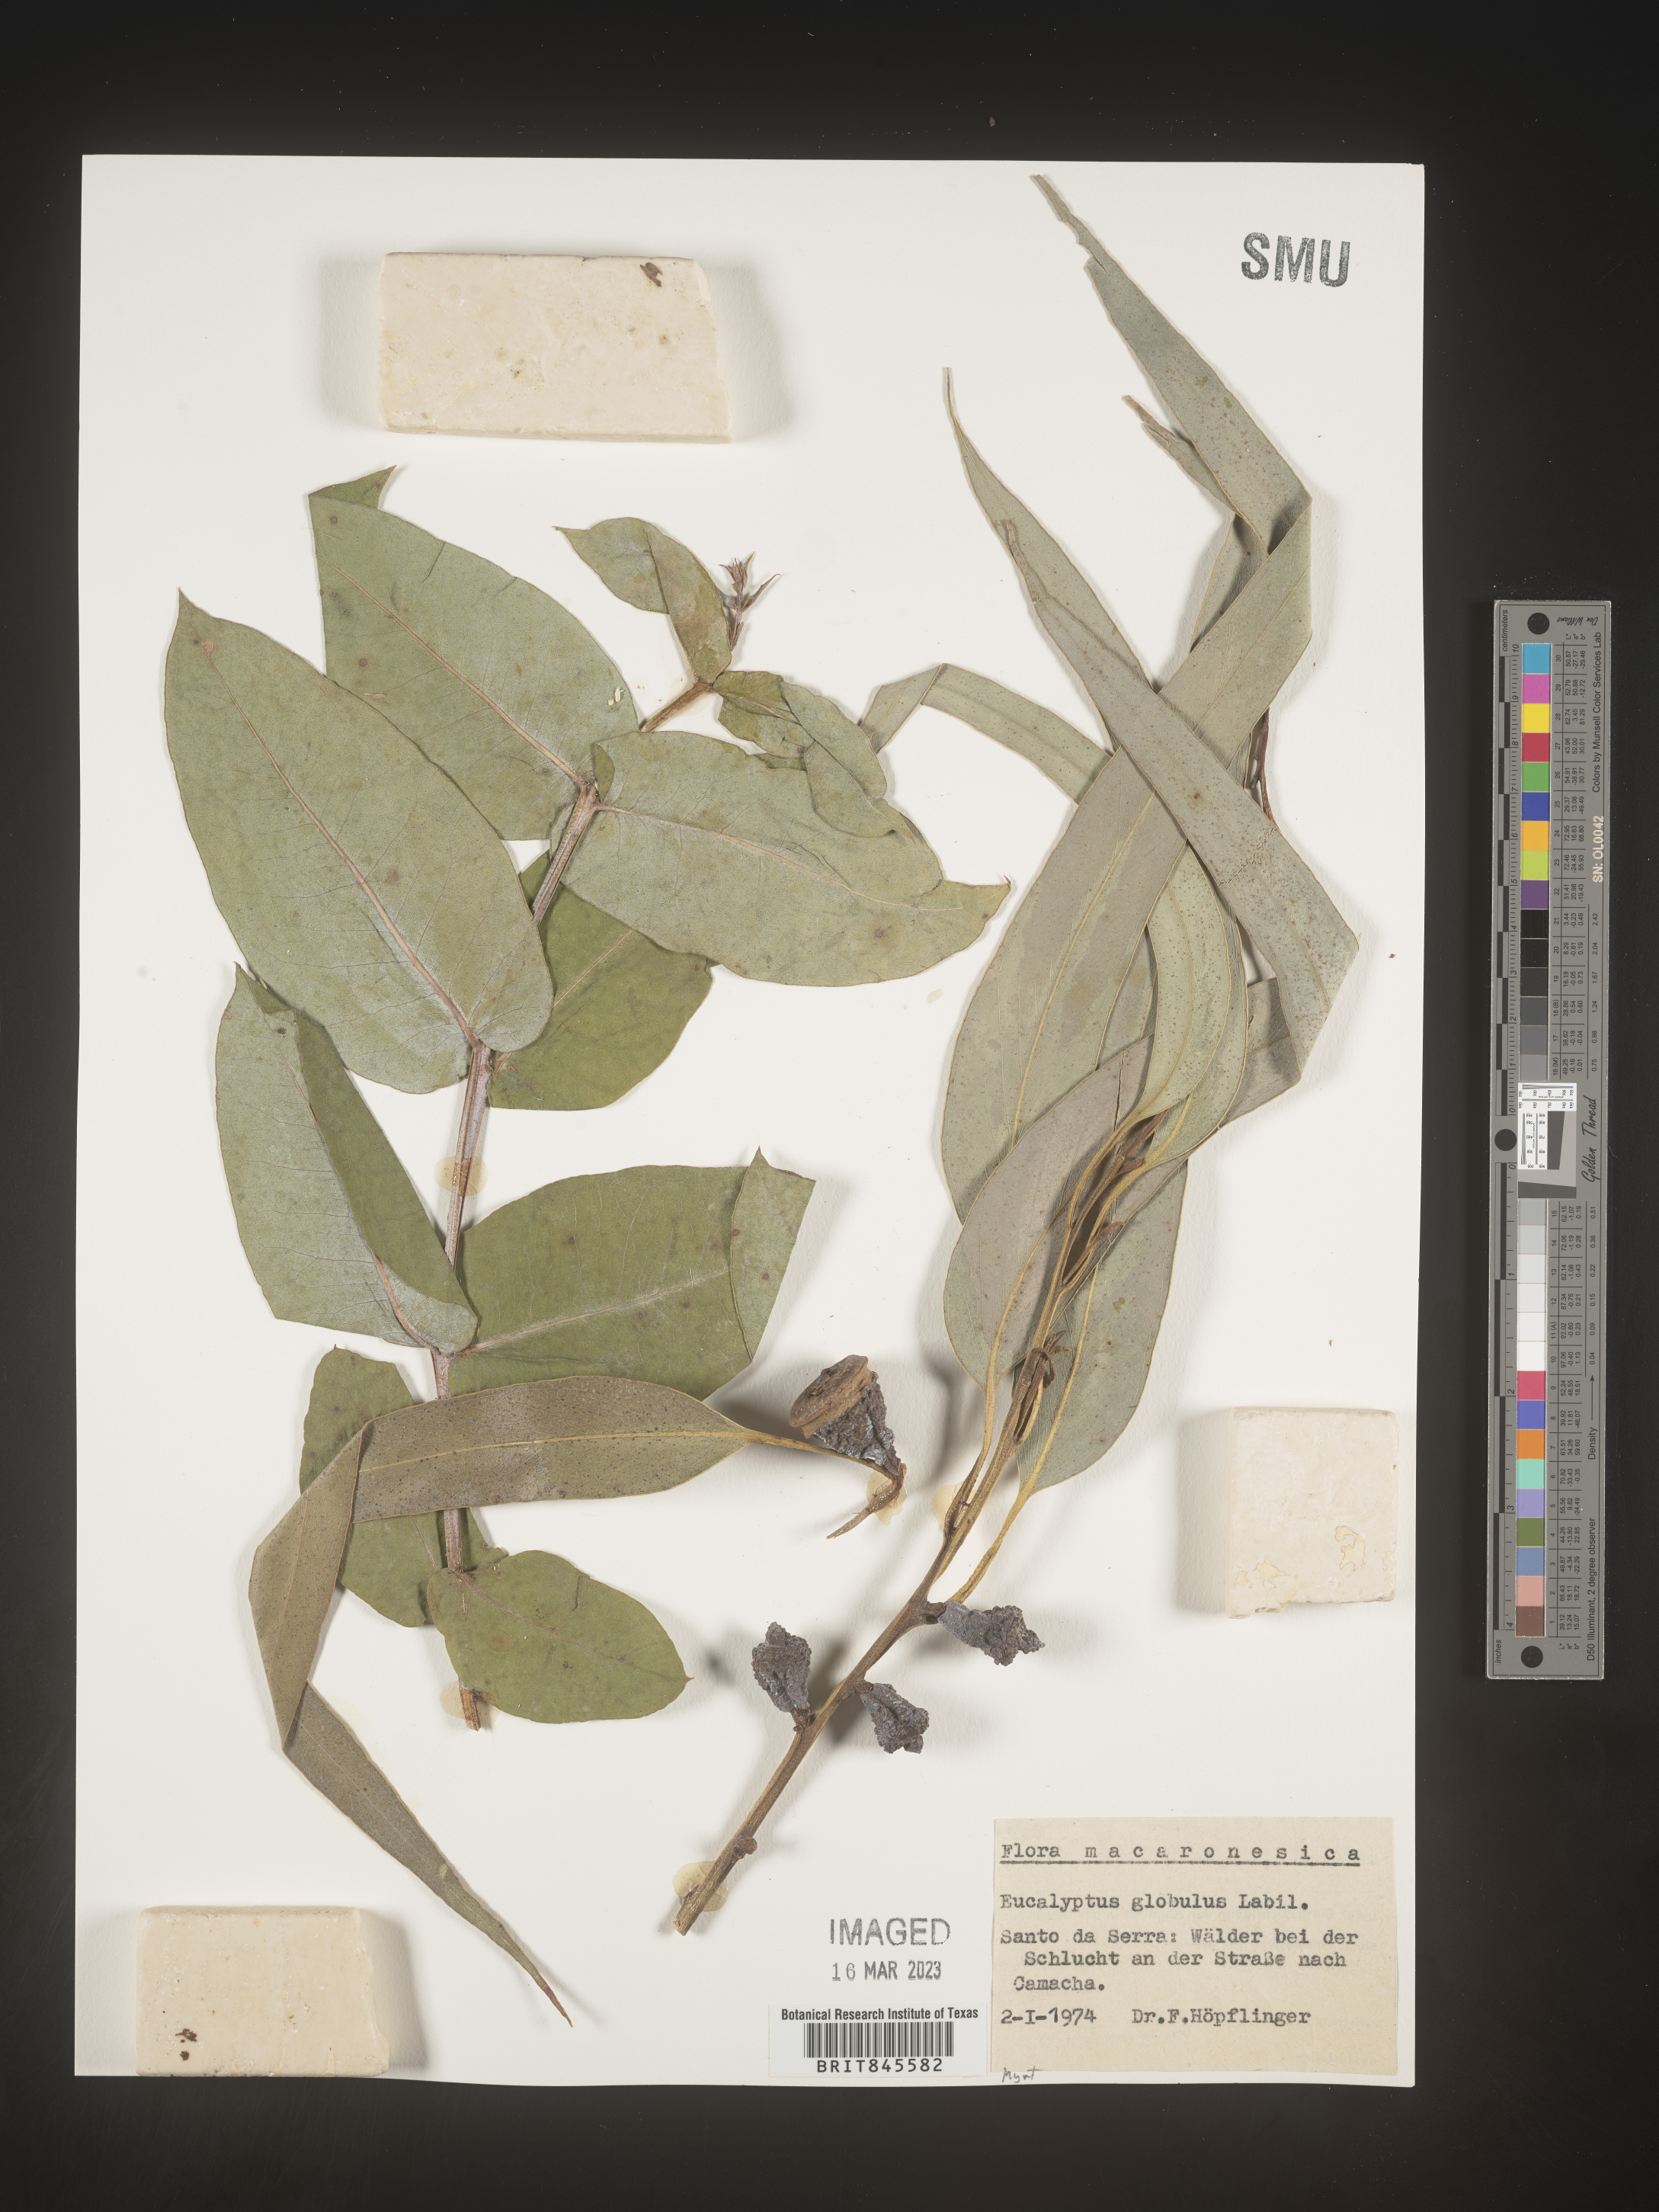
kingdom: Plantae
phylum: Tracheophyta
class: Magnoliopsida
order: Myrtales
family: Myrtaceae
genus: Eucalyptus
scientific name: Eucalyptus
